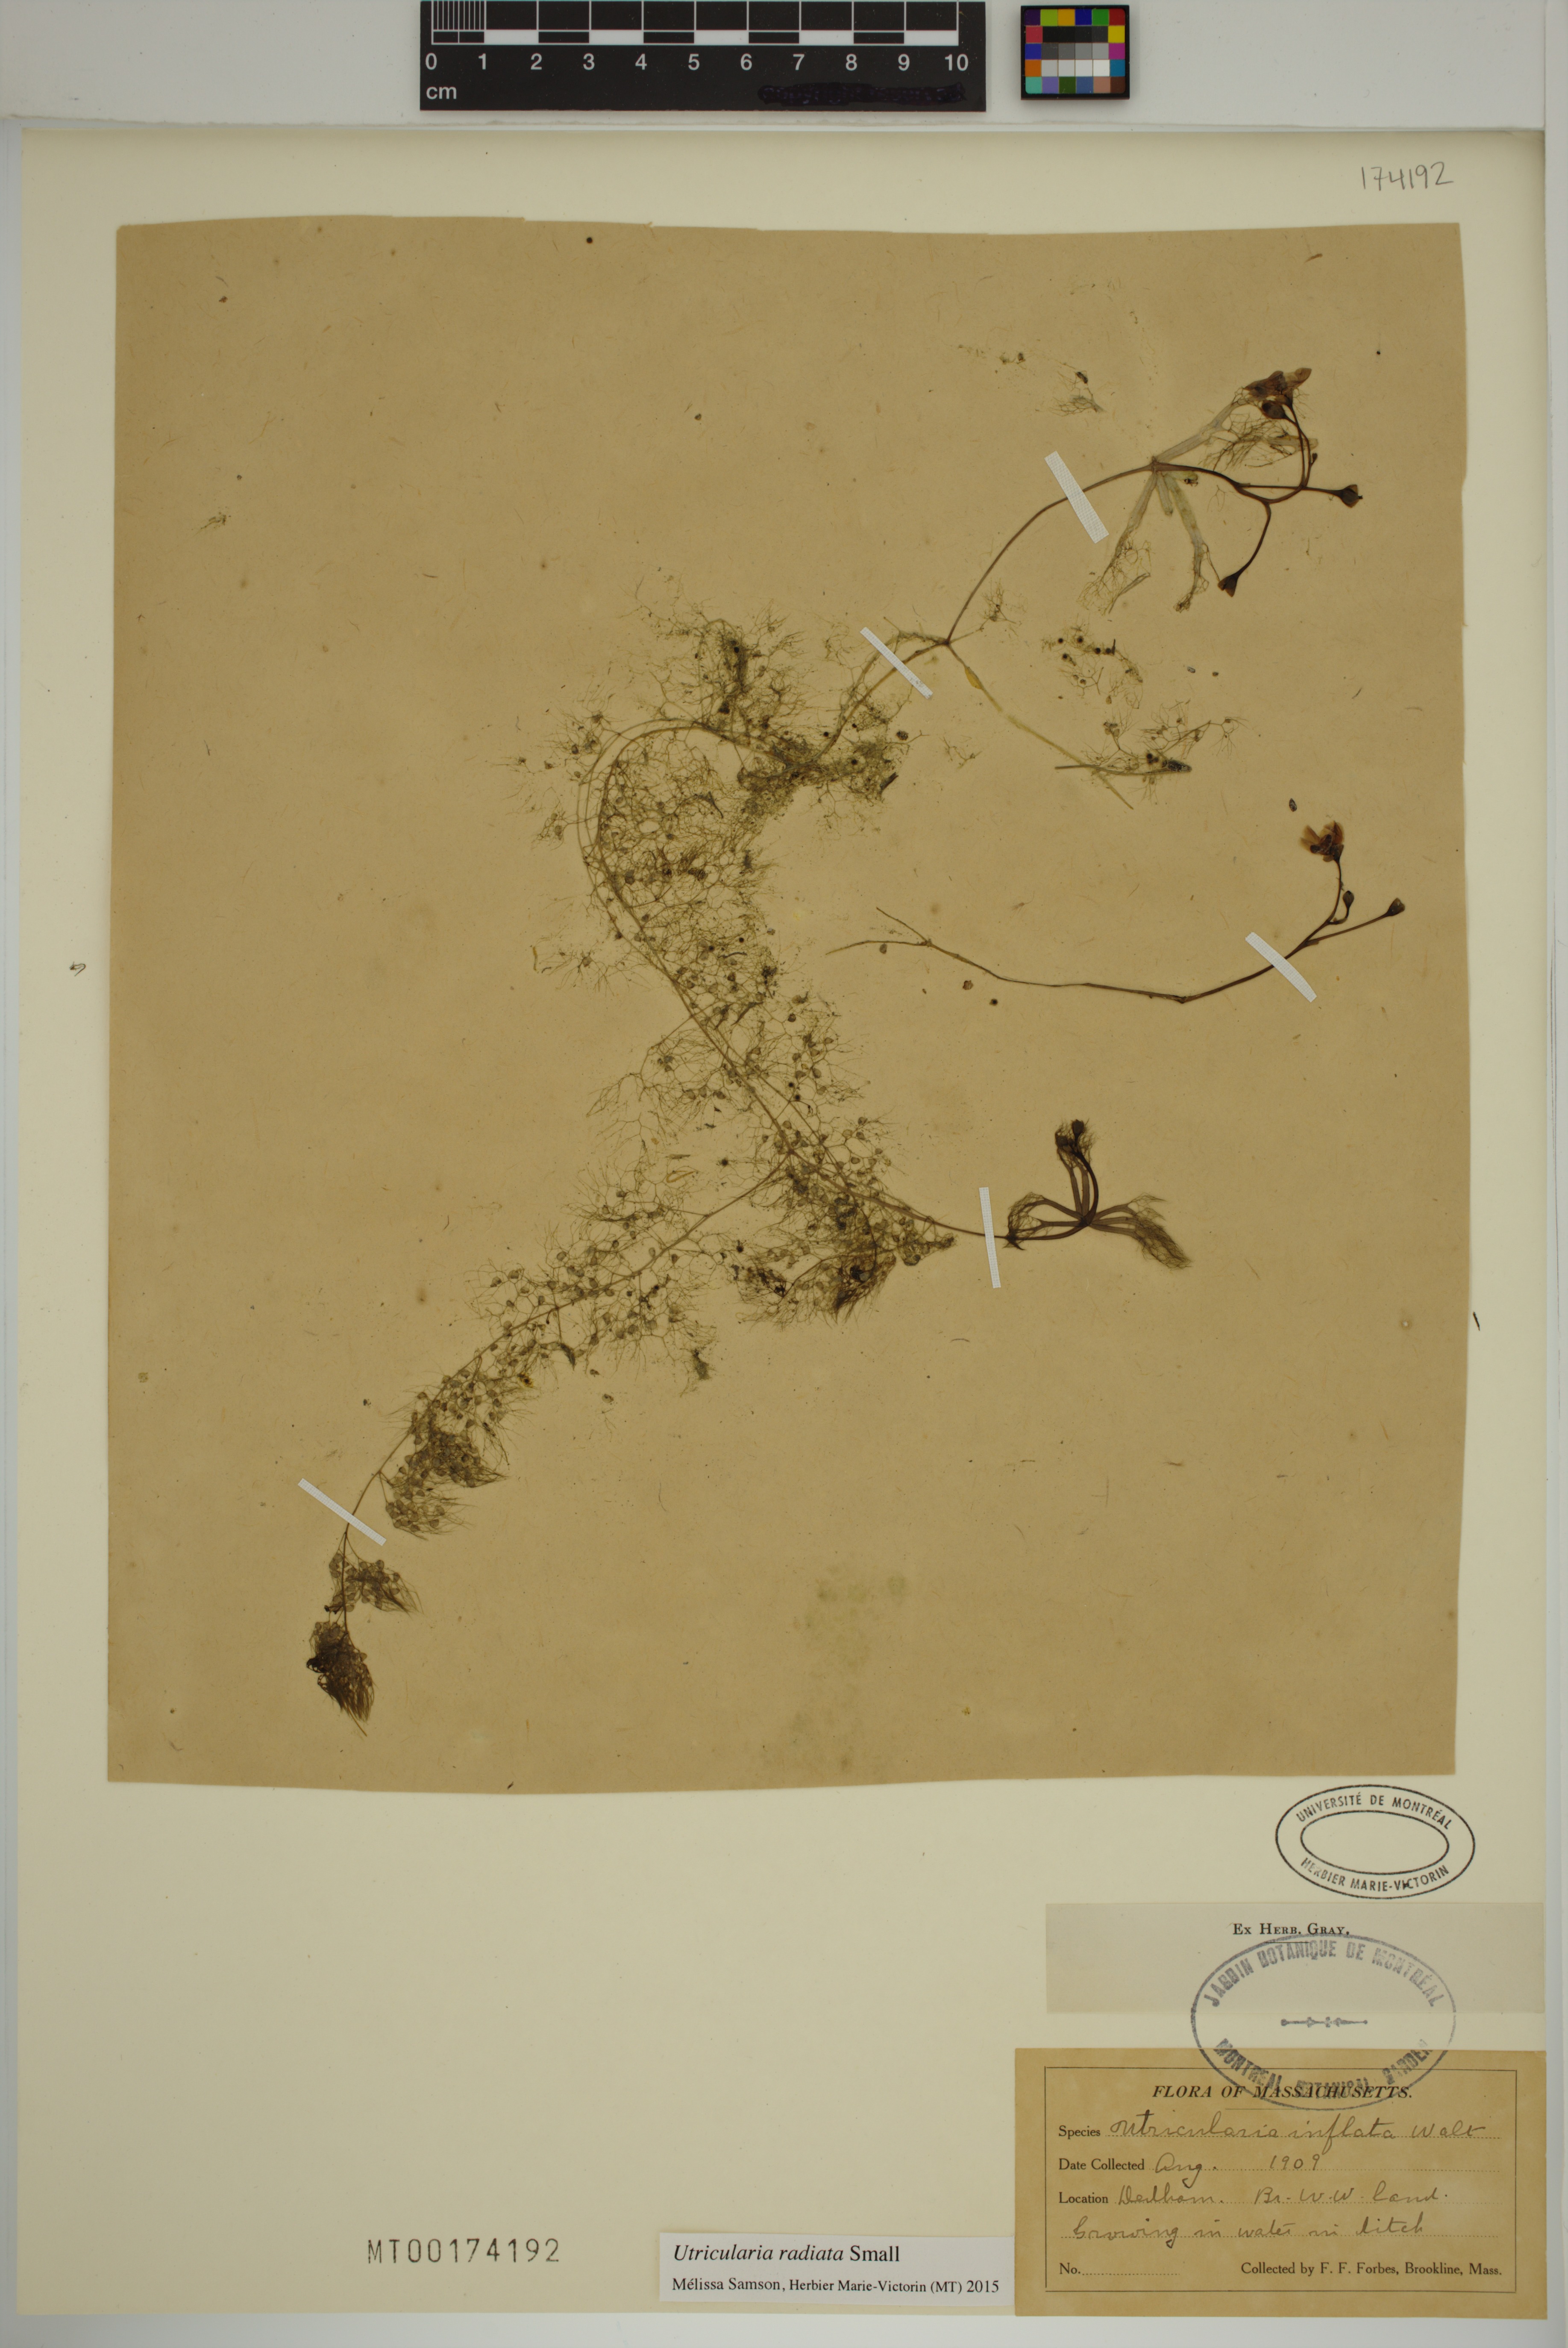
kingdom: Plantae
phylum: Tracheophyta
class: Magnoliopsida
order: Lamiales
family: Lentibulariaceae
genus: Utricularia
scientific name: Utricularia radiata
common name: Floating bladderwort
